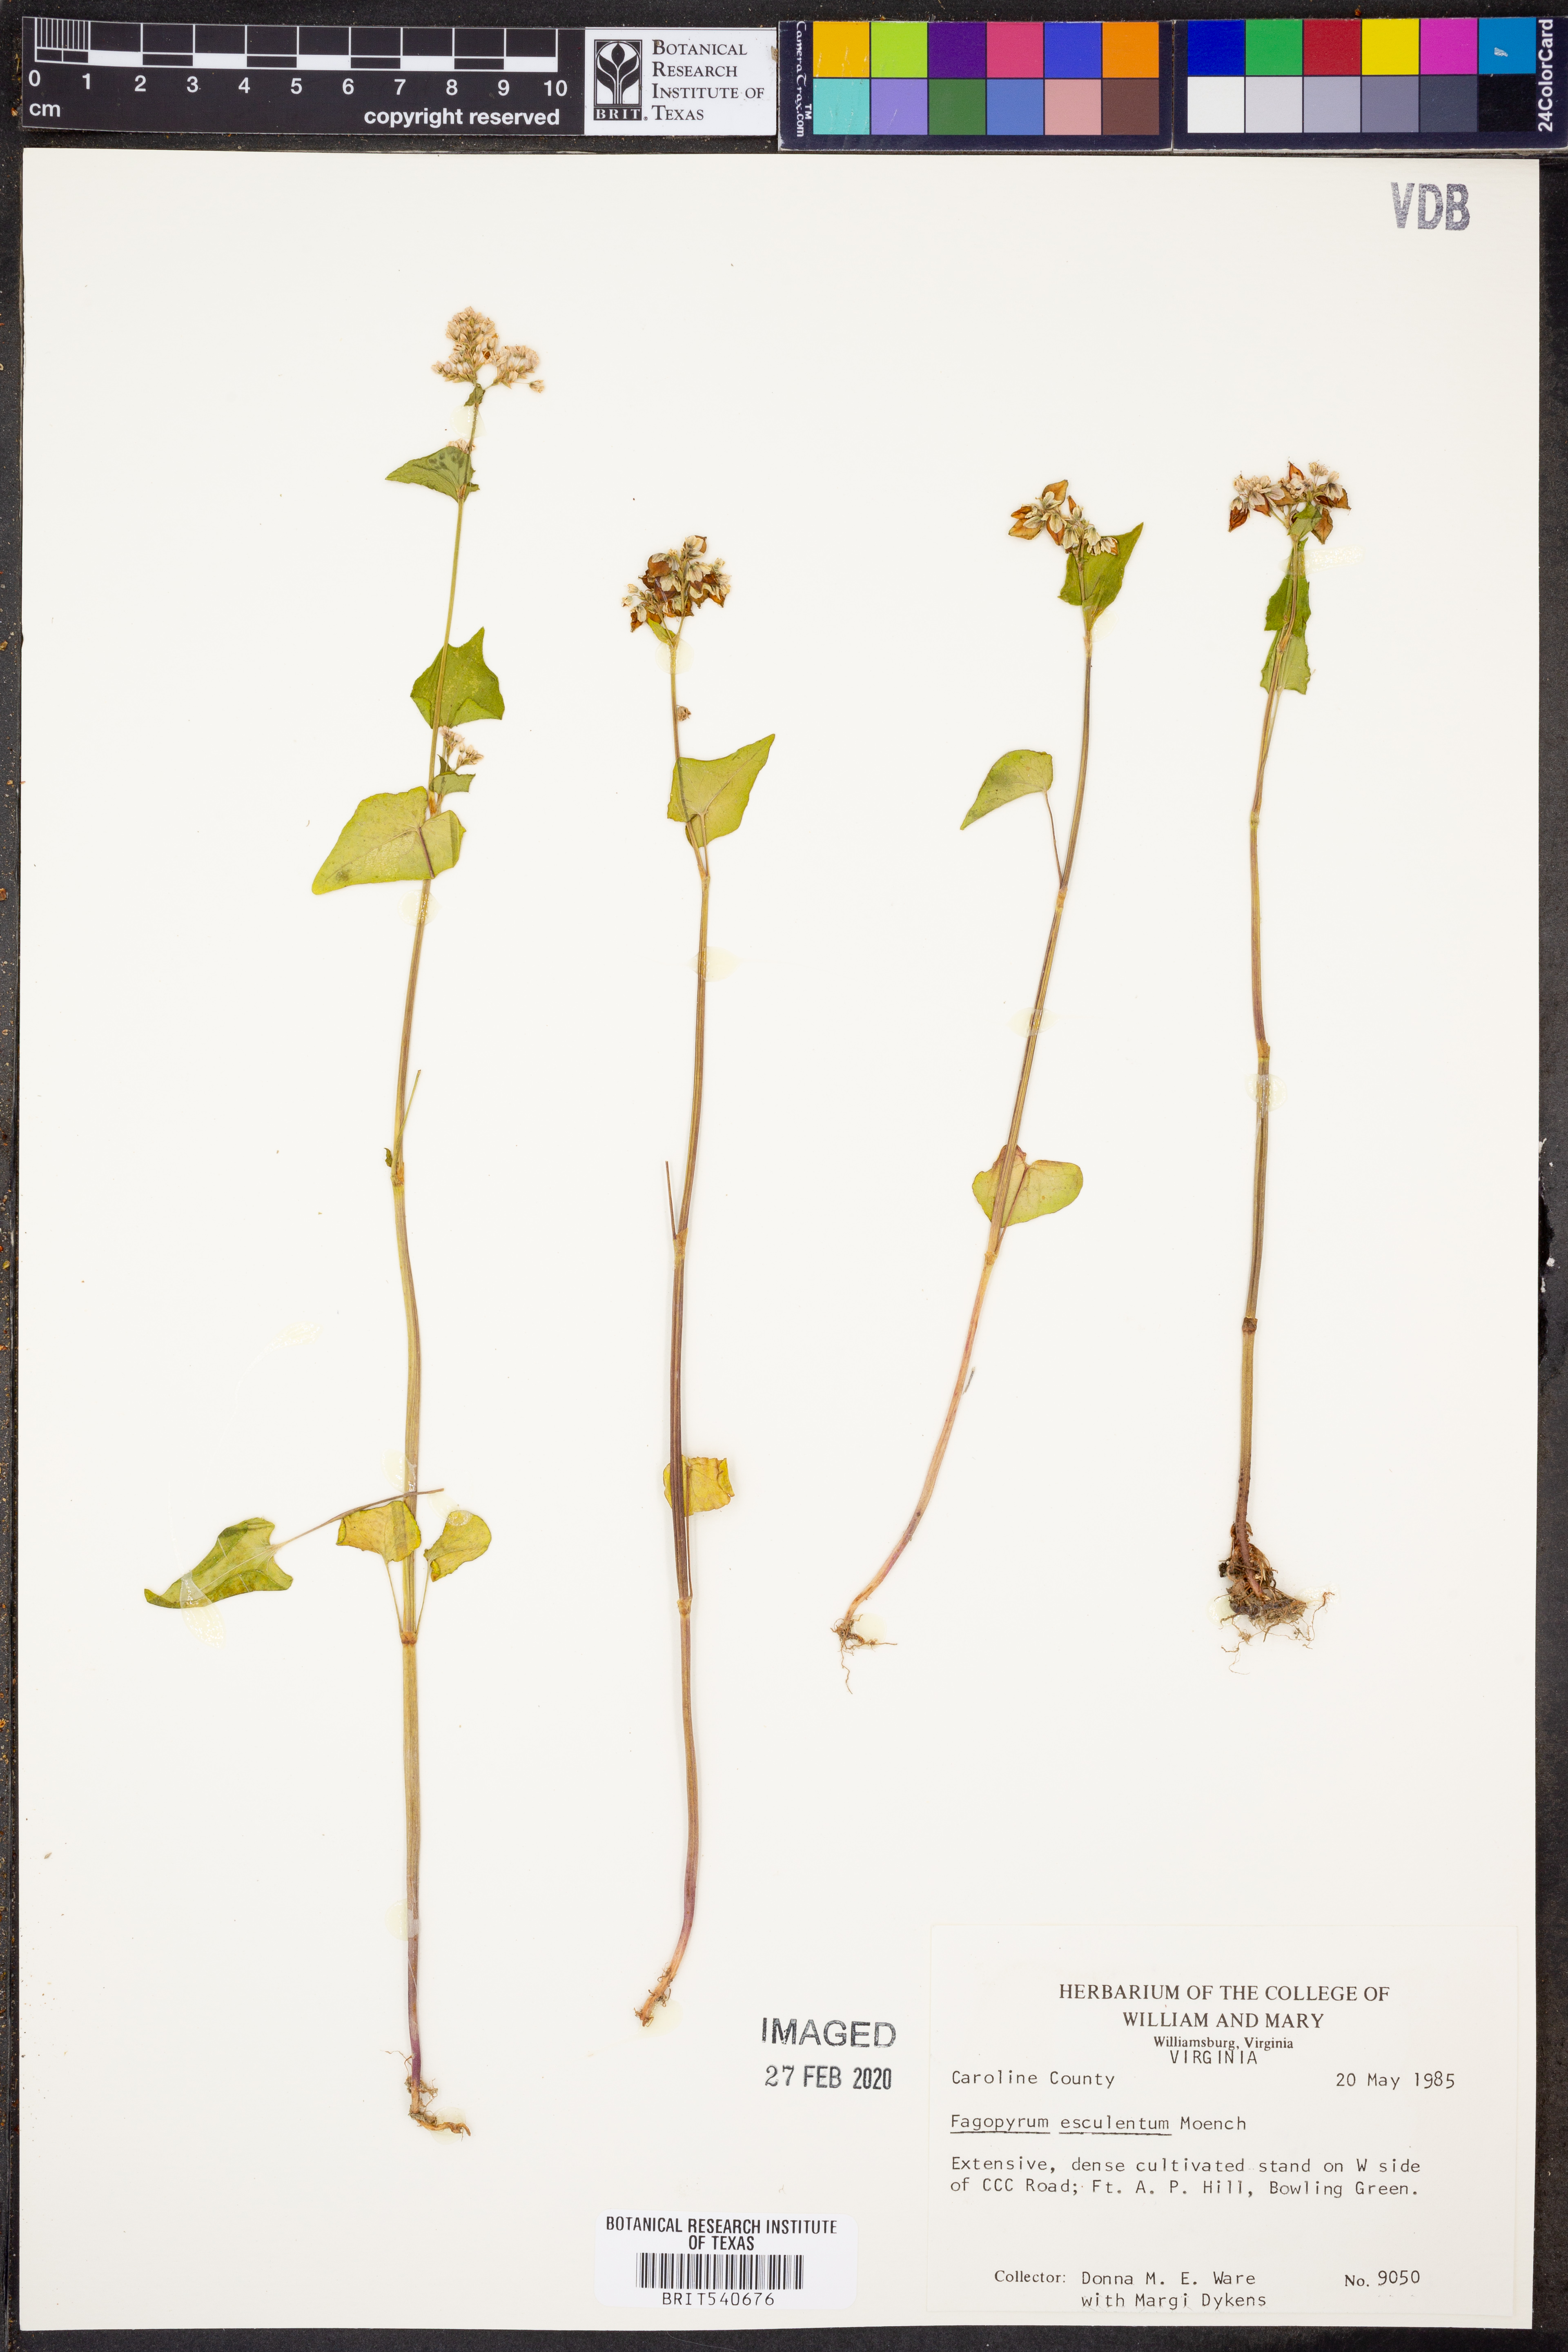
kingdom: Plantae
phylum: Tracheophyta
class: Magnoliopsida
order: Caryophyllales
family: Polygonaceae
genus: Fagopyrum
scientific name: Fagopyrum esculentum
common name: Buckwheat
